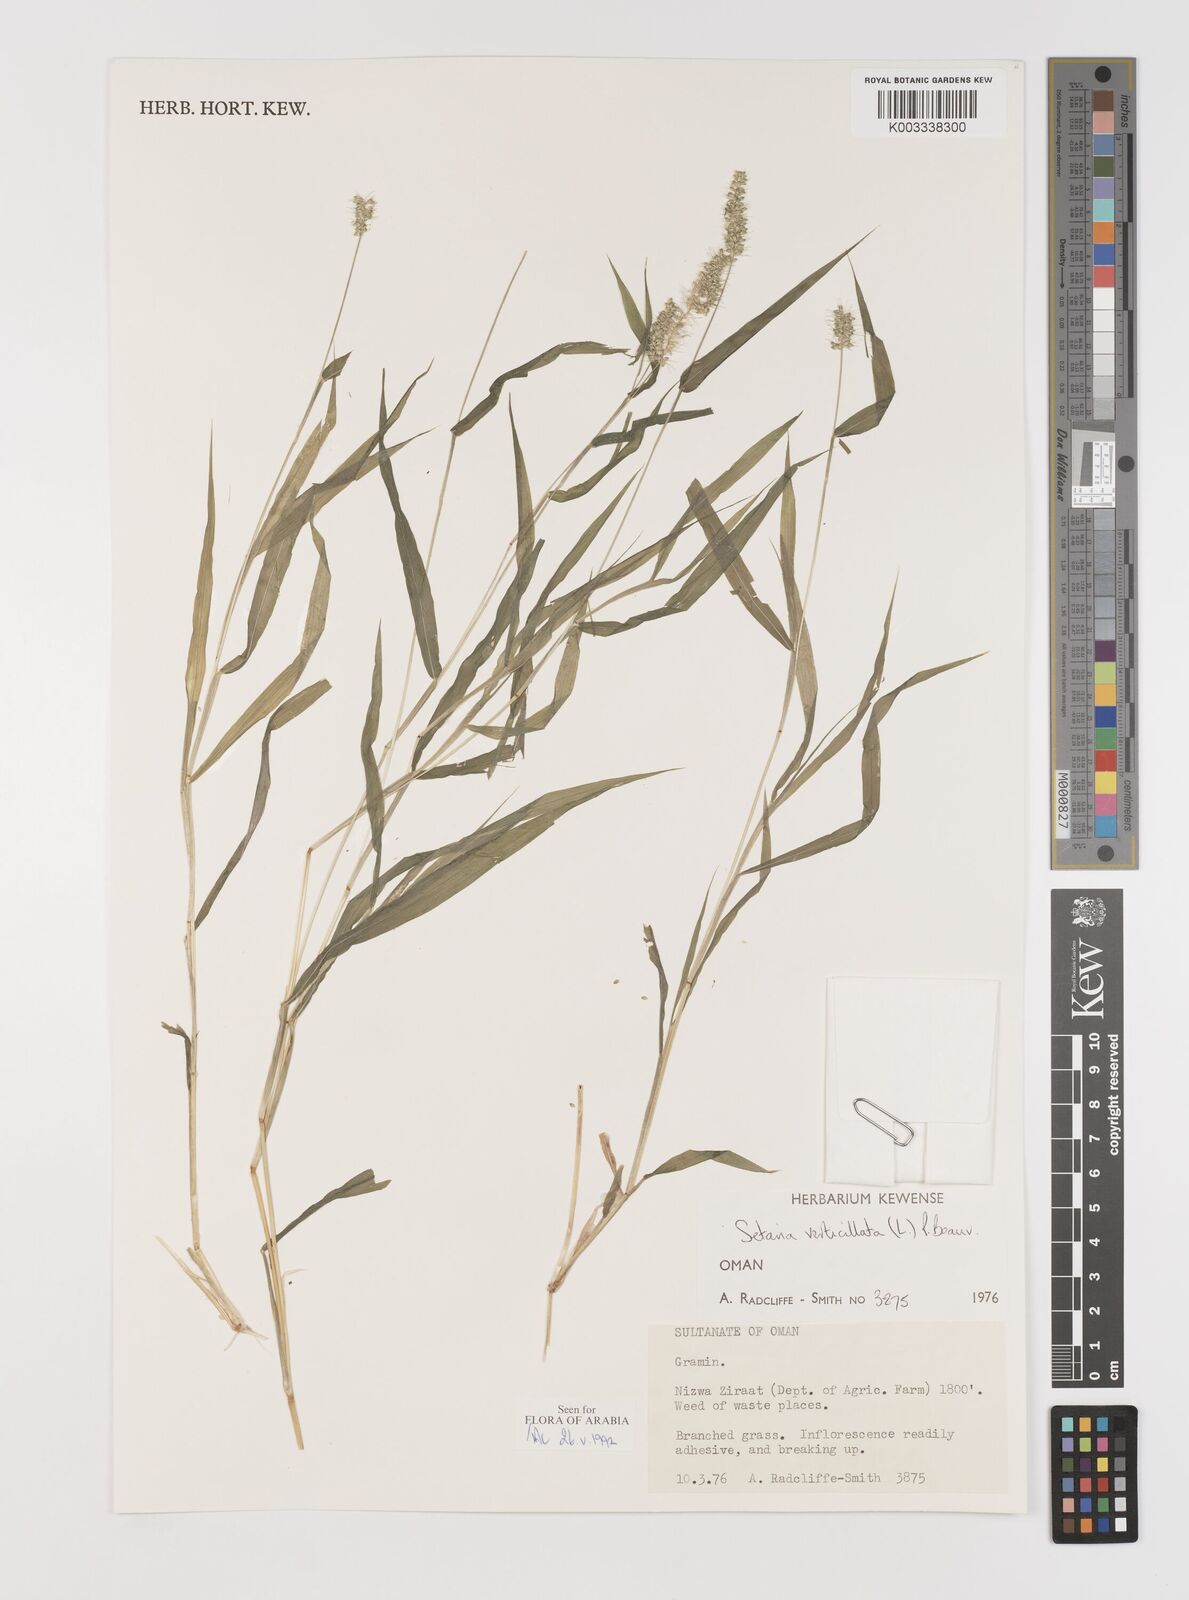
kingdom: Plantae
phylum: Tracheophyta
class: Liliopsida
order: Poales
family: Poaceae
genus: Setaria
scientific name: Setaria verticillata
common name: Hooked bristlegrass
